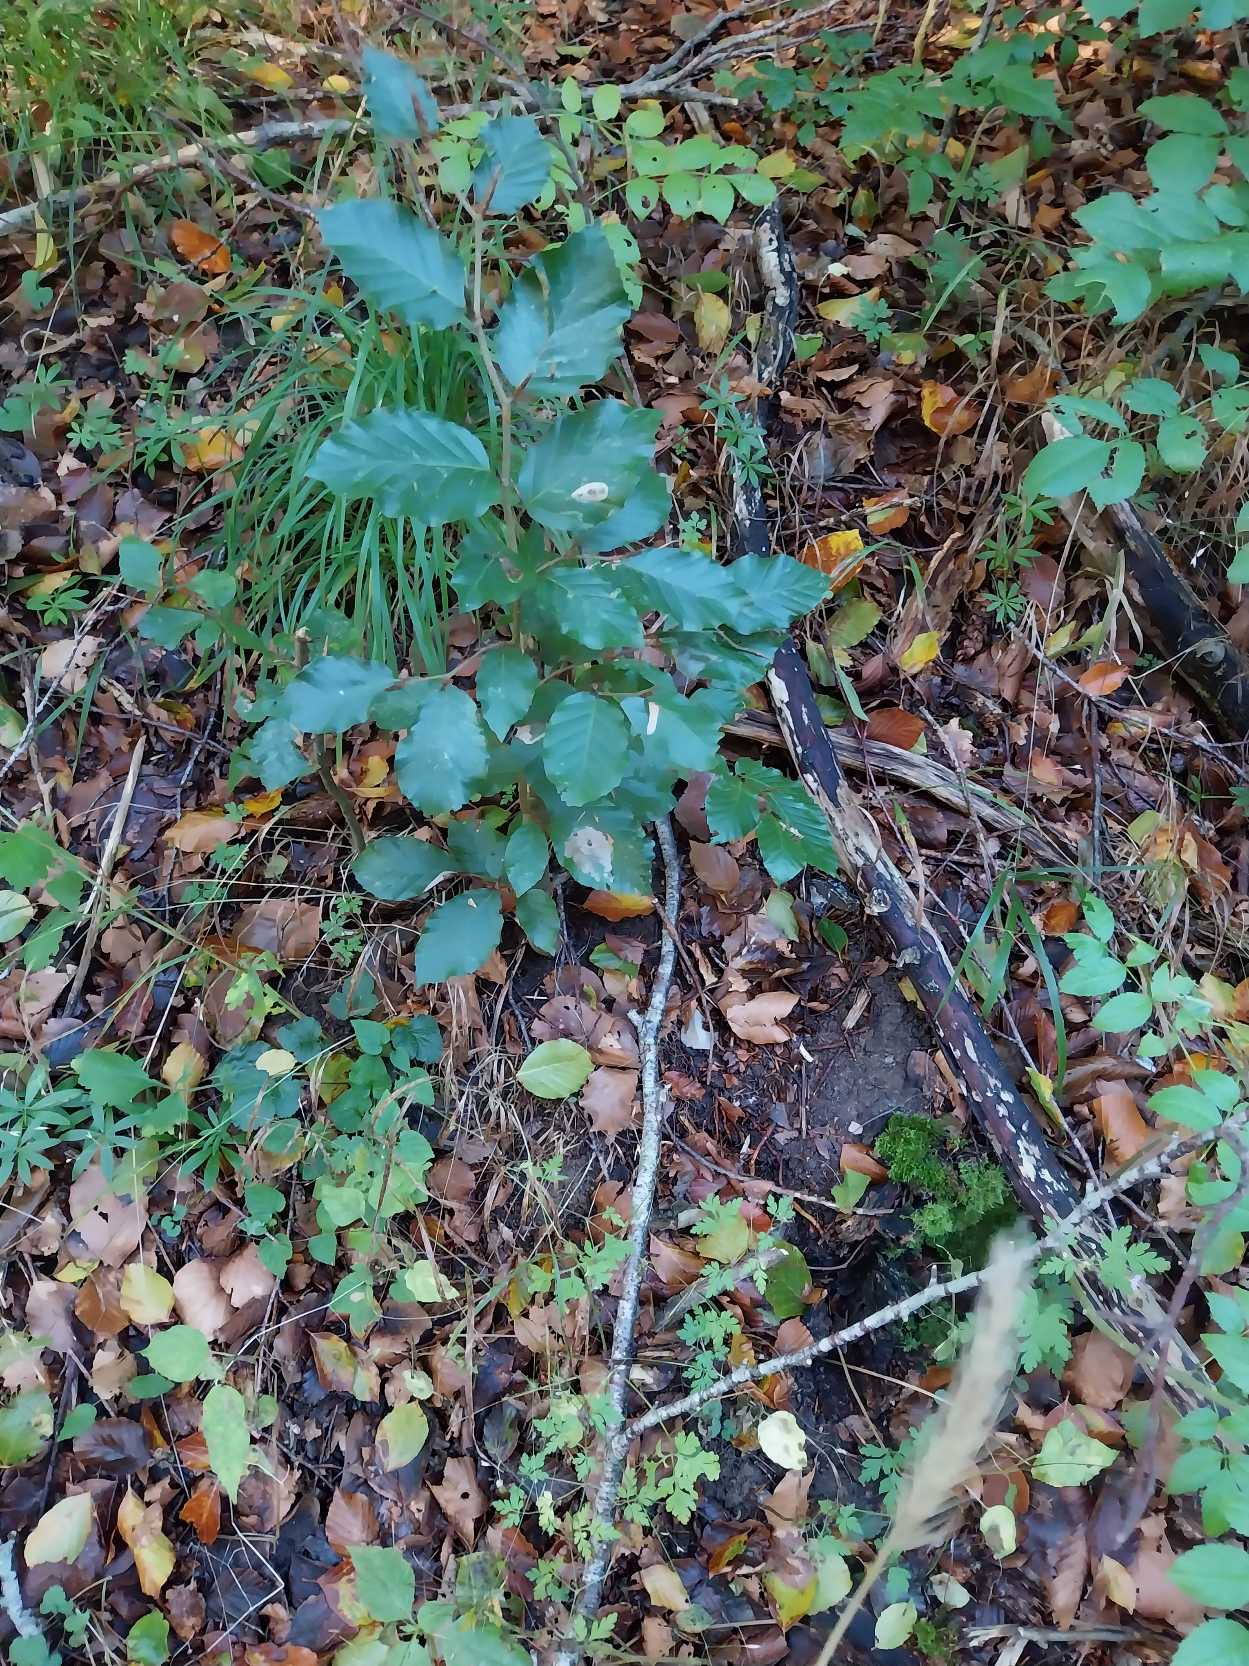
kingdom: Plantae
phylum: Tracheophyta
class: Magnoliopsida
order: Fagales
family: Fagaceae
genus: Fagus
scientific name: Fagus sylvatica
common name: Bøg
